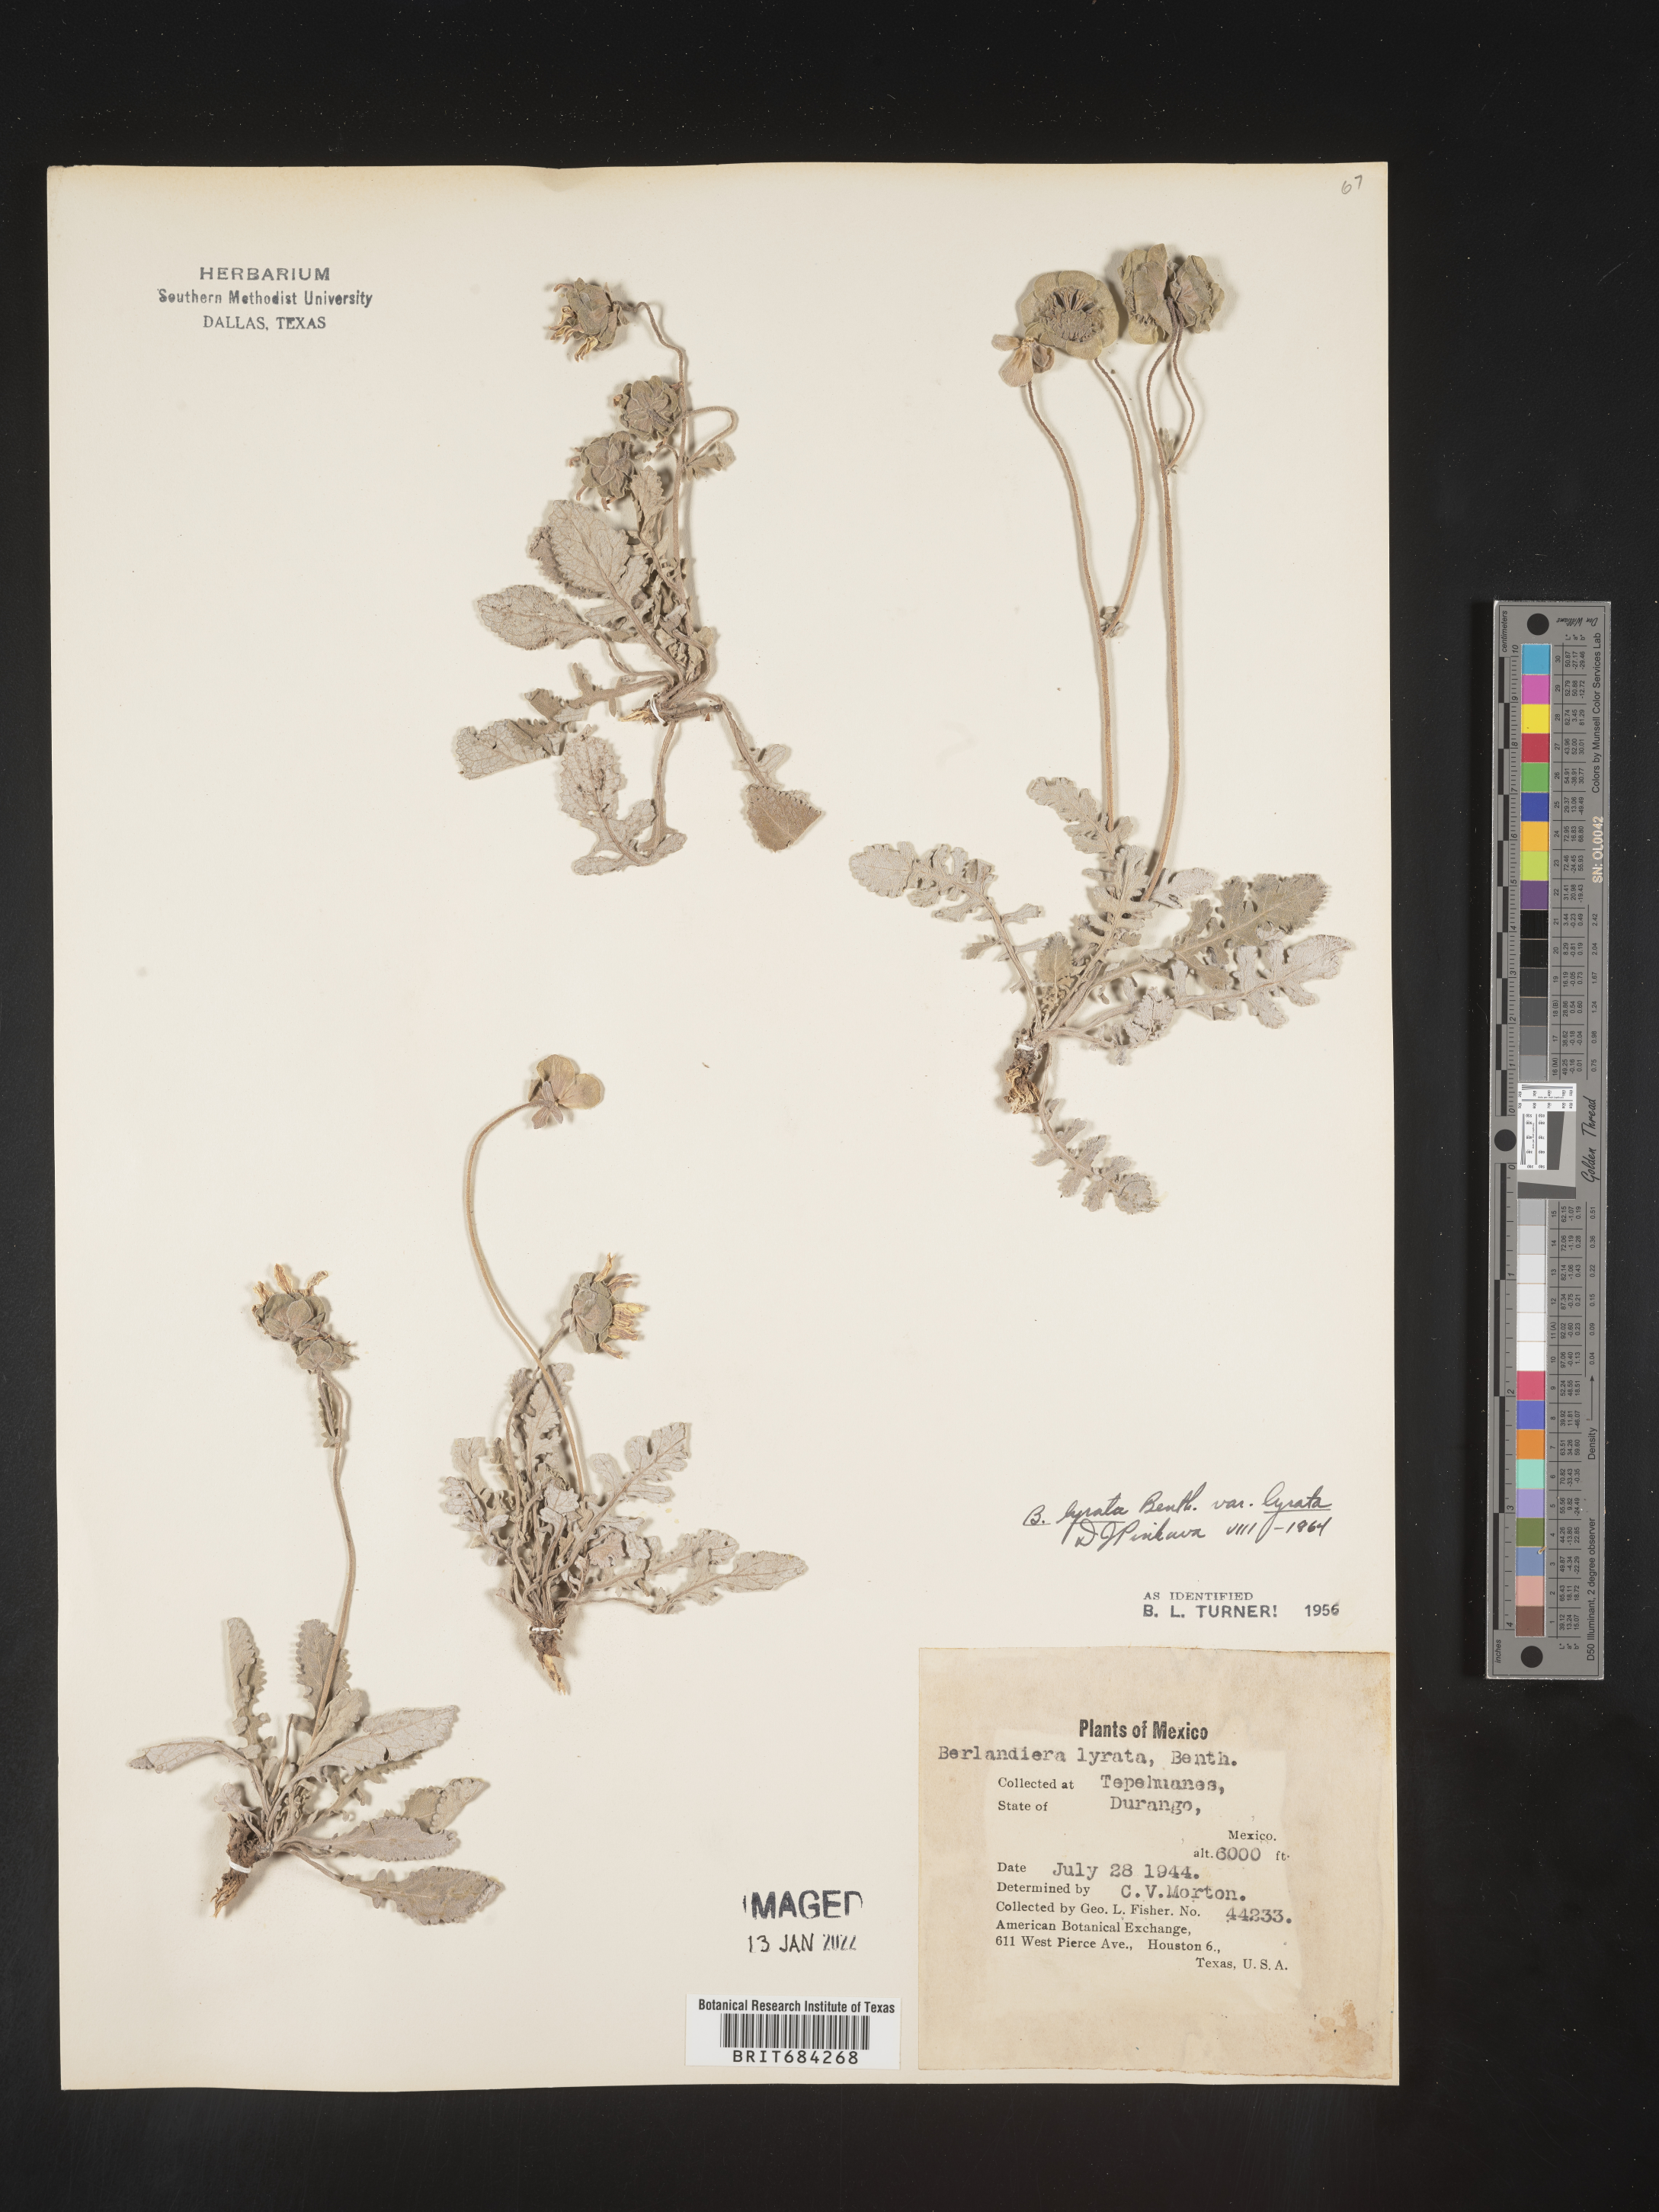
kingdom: Plantae
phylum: Tracheophyta
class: Magnoliopsida
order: Asterales
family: Asteraceae
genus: Berlandiera
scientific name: Berlandiera
